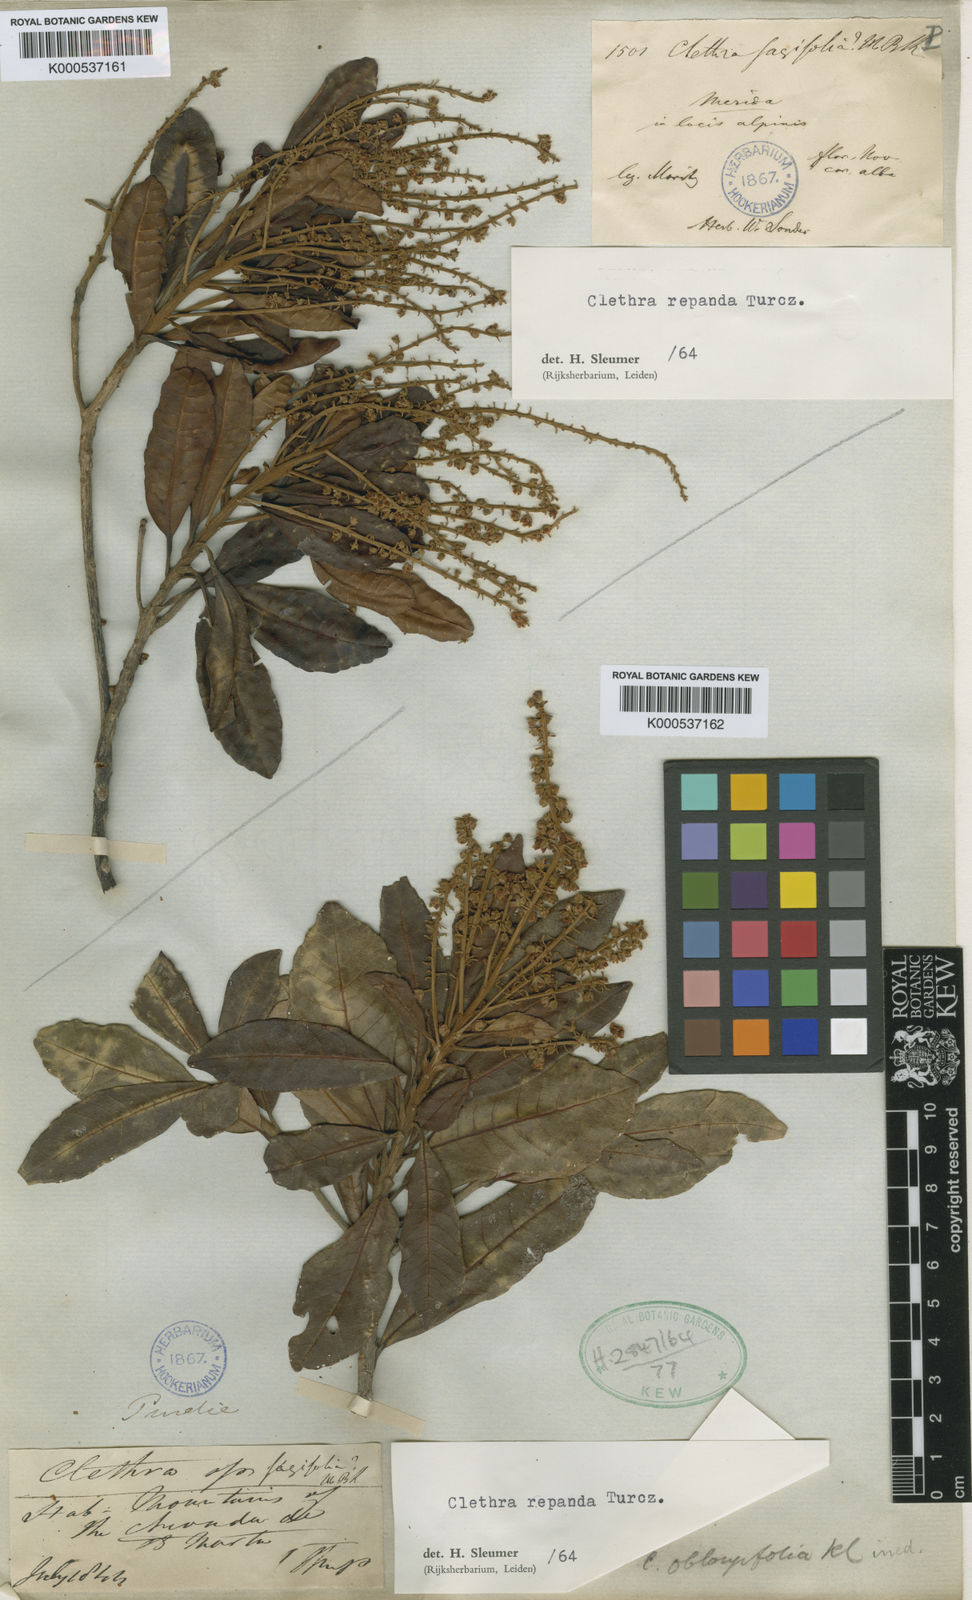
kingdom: Plantae
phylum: Tracheophyta
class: Magnoliopsida
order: Ericales
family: Clethraceae
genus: Clethra
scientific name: Clethra repanda
